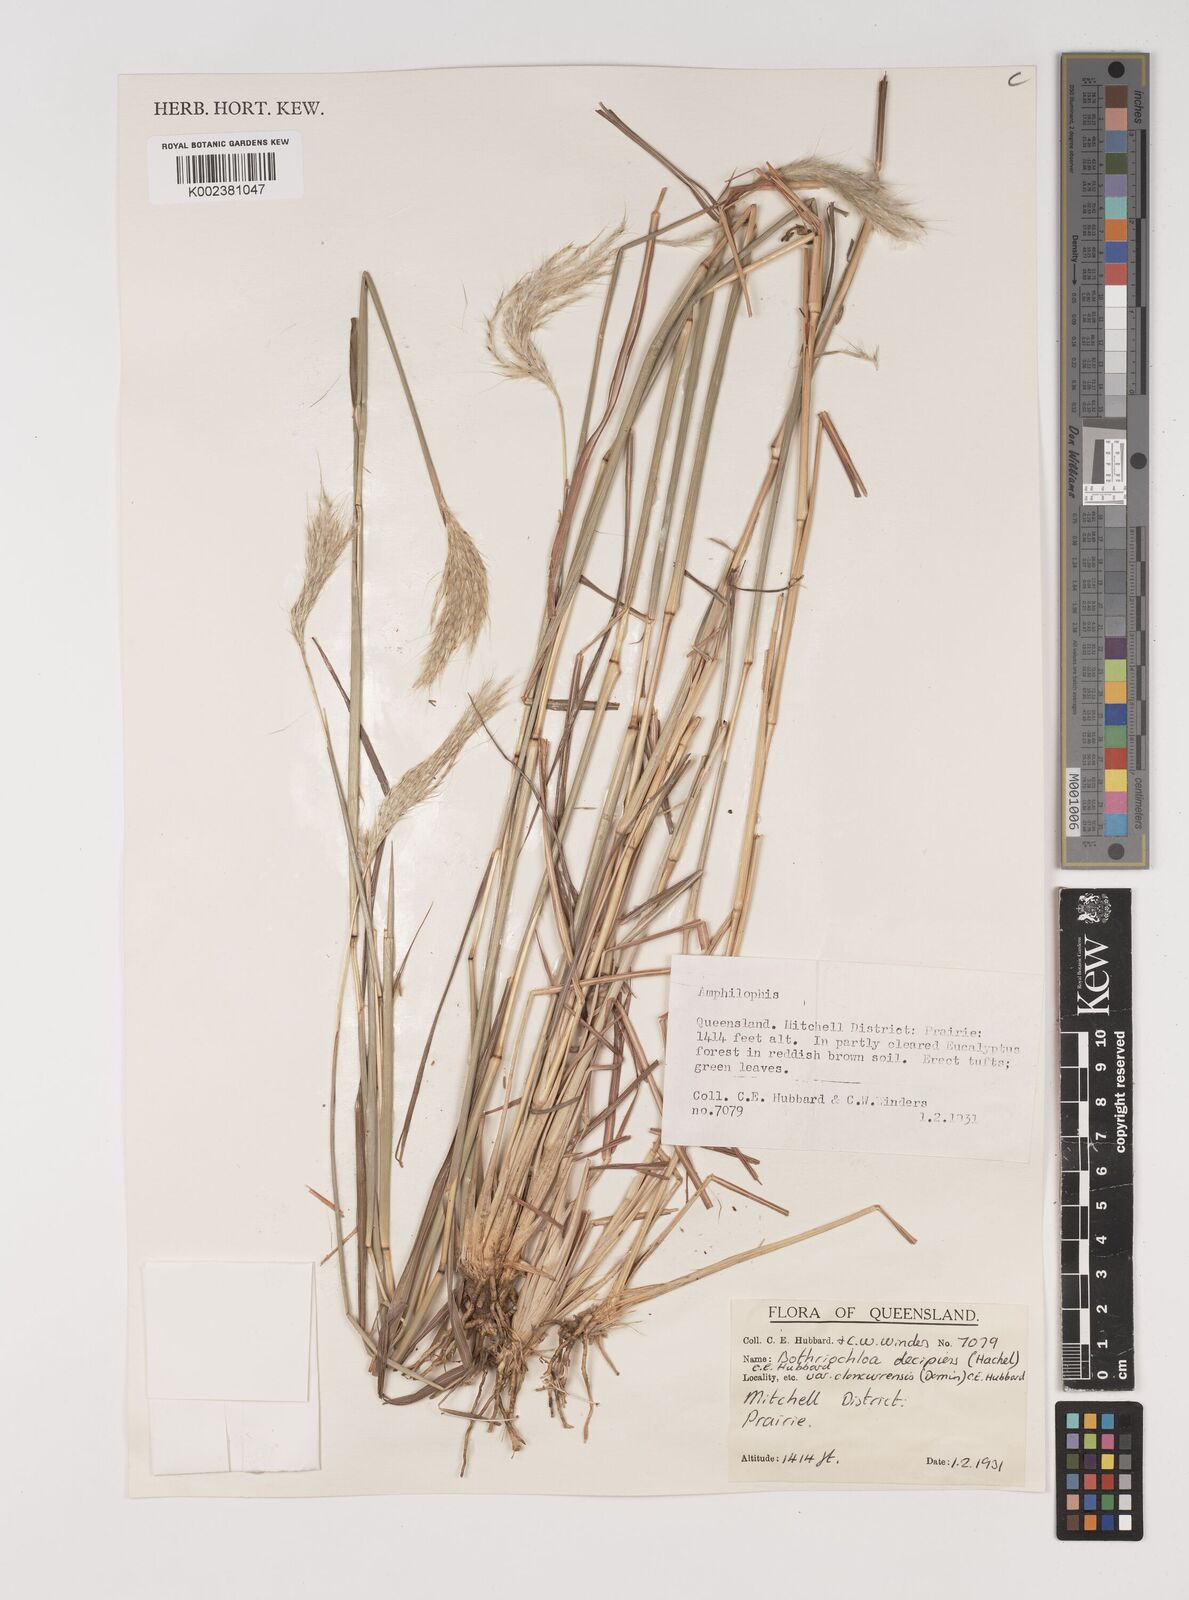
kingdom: Plantae
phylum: Tracheophyta
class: Liliopsida
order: Poales
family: Poaceae
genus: Bothriochloa
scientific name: Bothriochloa decipiens
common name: Pitted-bluegrass
